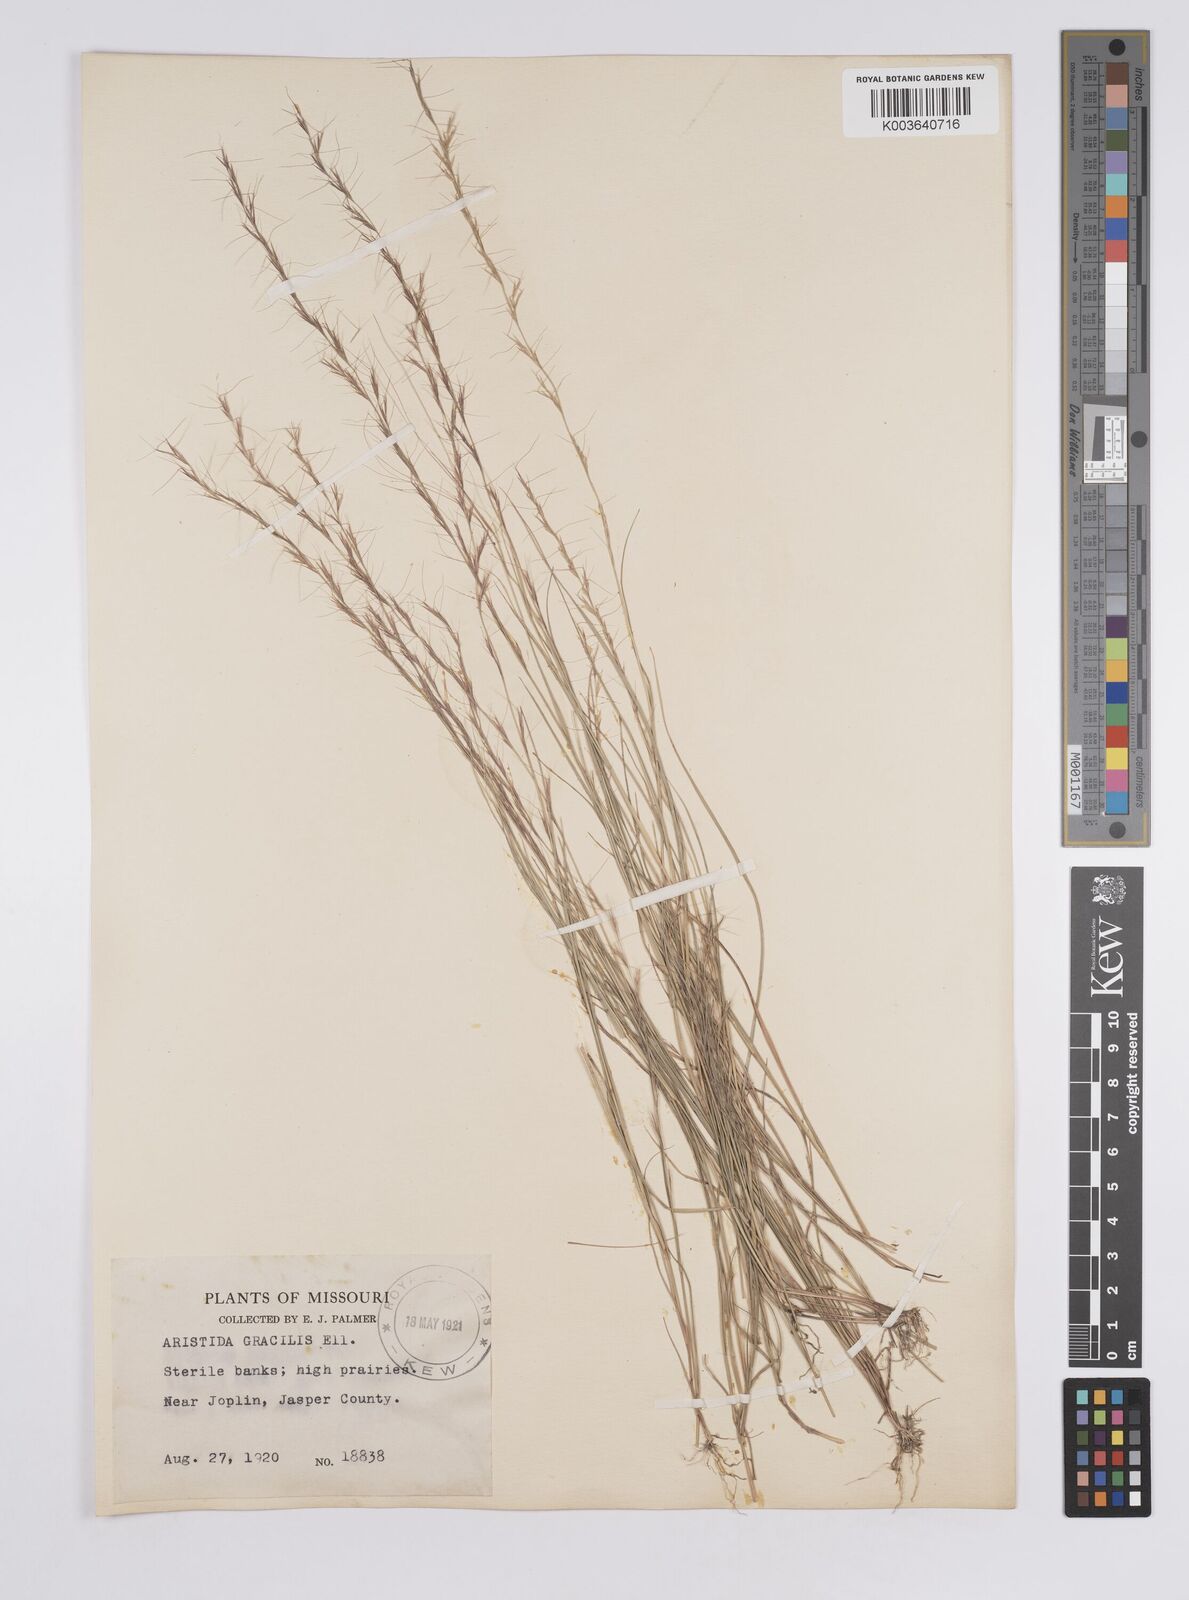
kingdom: Plantae
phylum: Tracheophyta
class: Liliopsida
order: Poales
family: Poaceae
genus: Aristida
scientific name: Aristida longespica
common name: Long-spiked triple-awned grass
